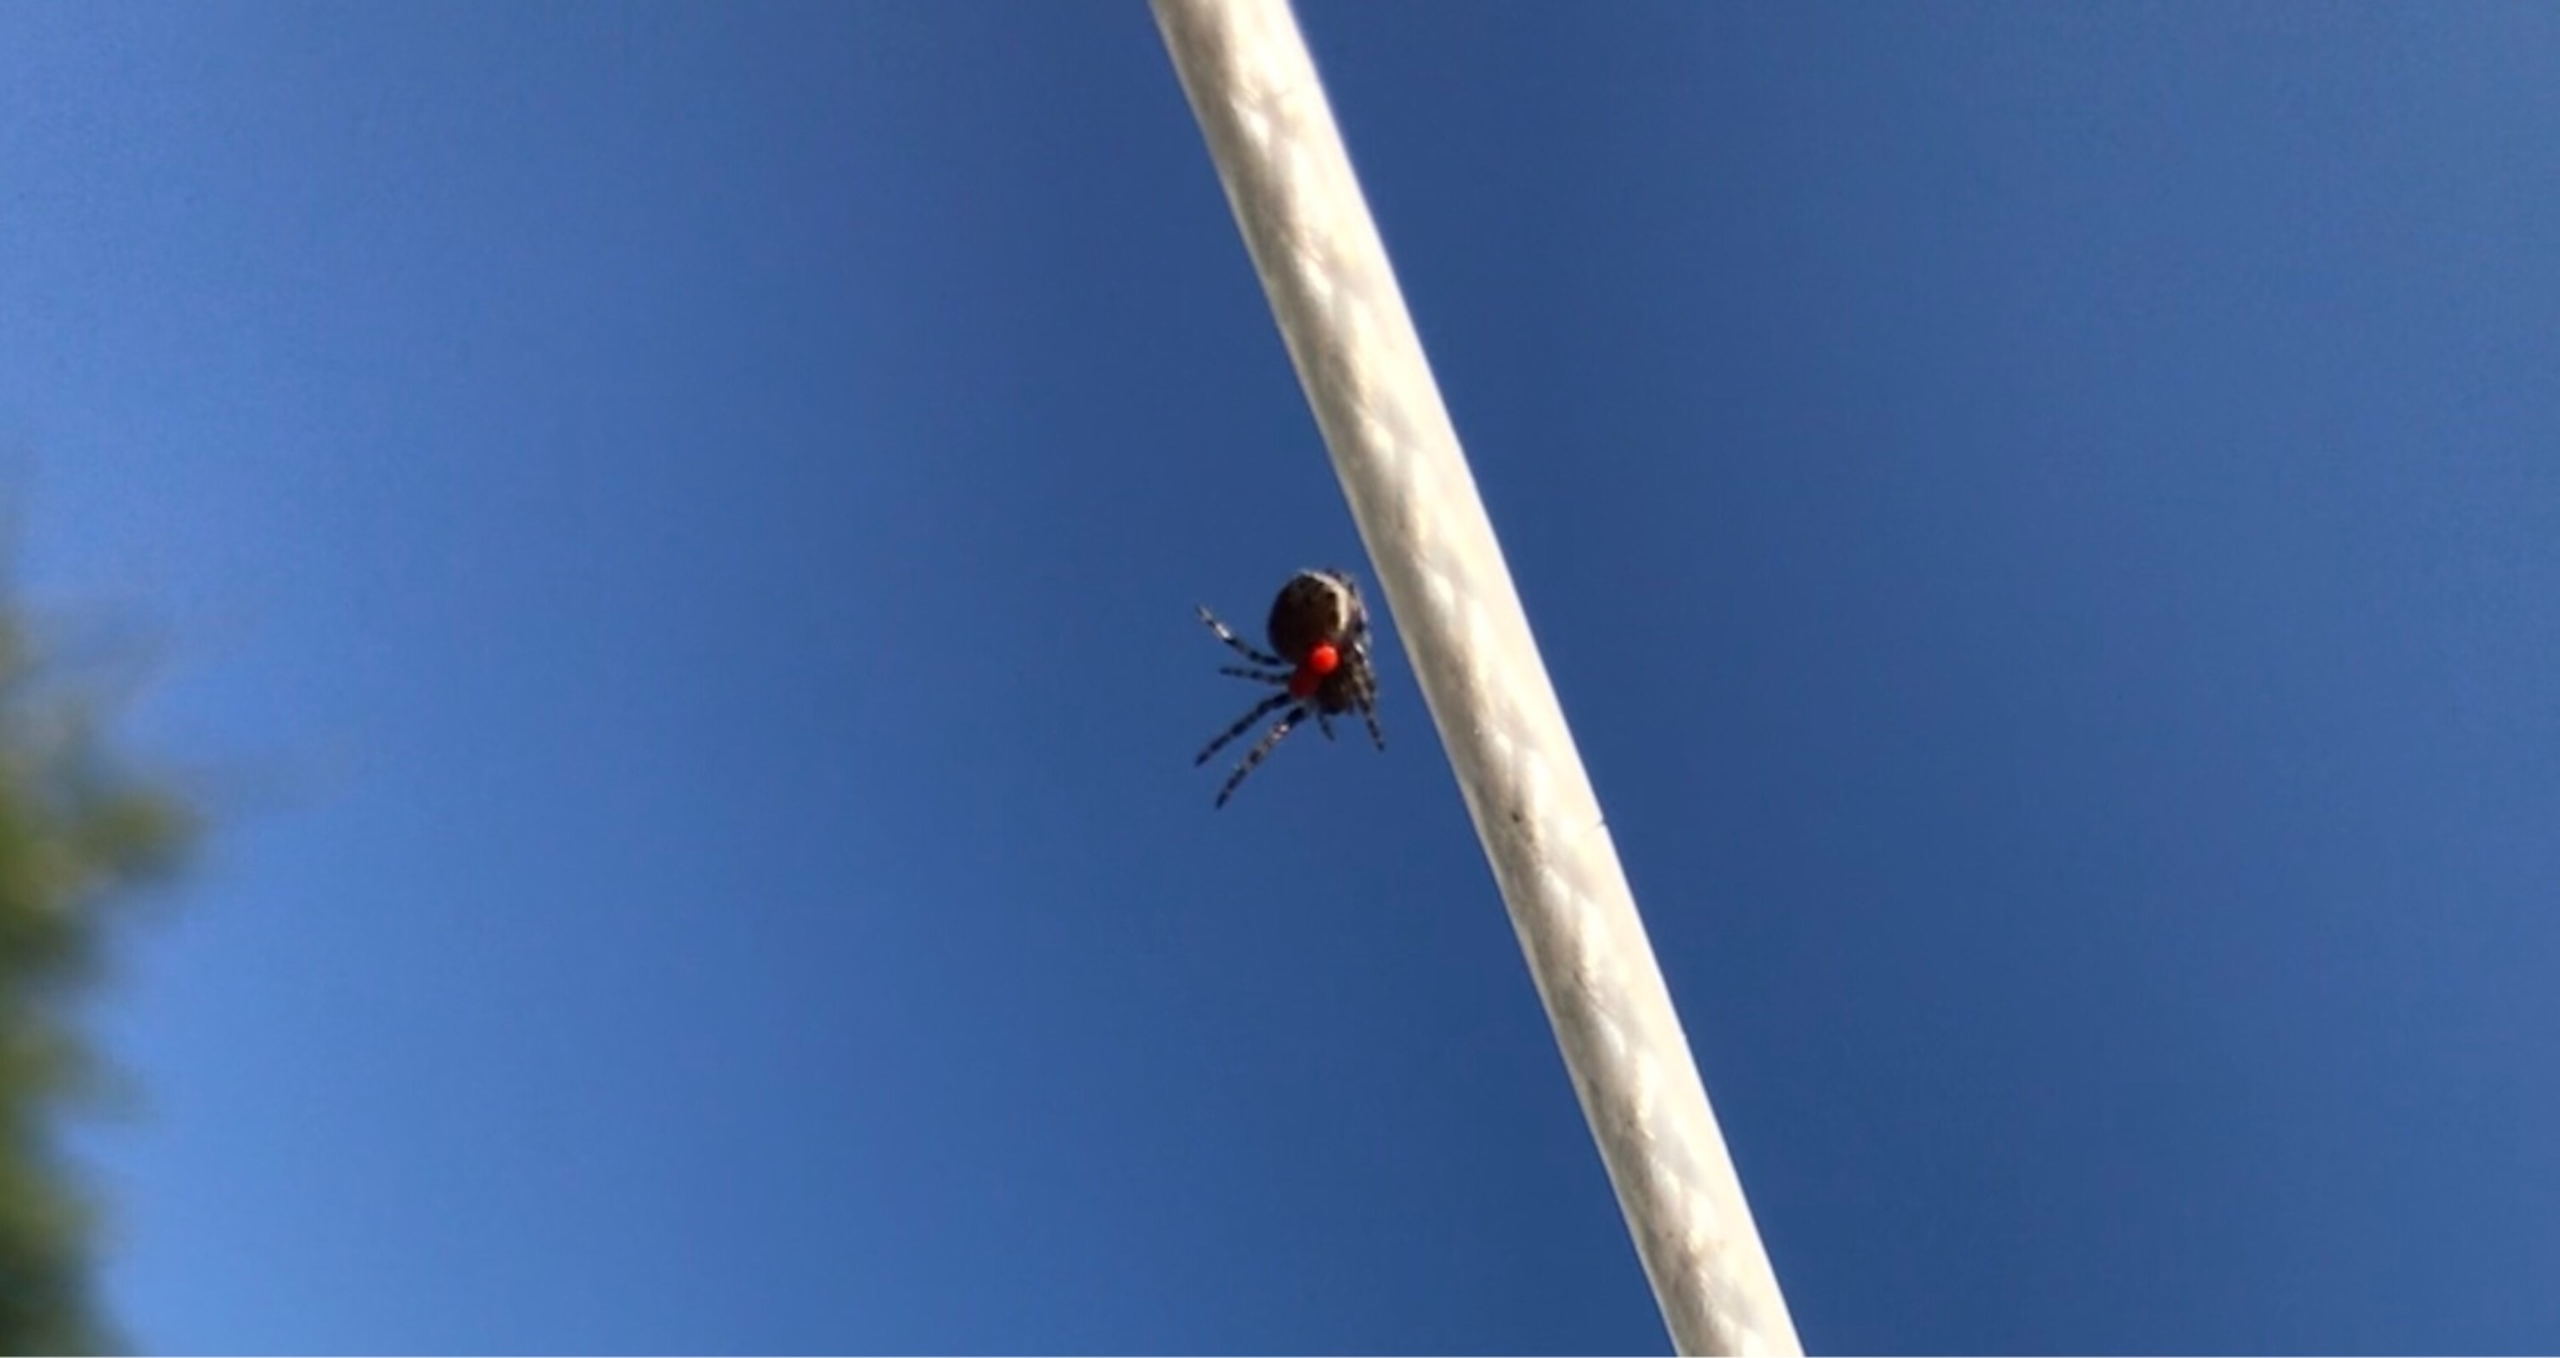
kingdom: Animalia
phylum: Arthropoda
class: Arachnida
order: Araneae
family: Araneidae
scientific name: Araneidae
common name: Hjulspindere
